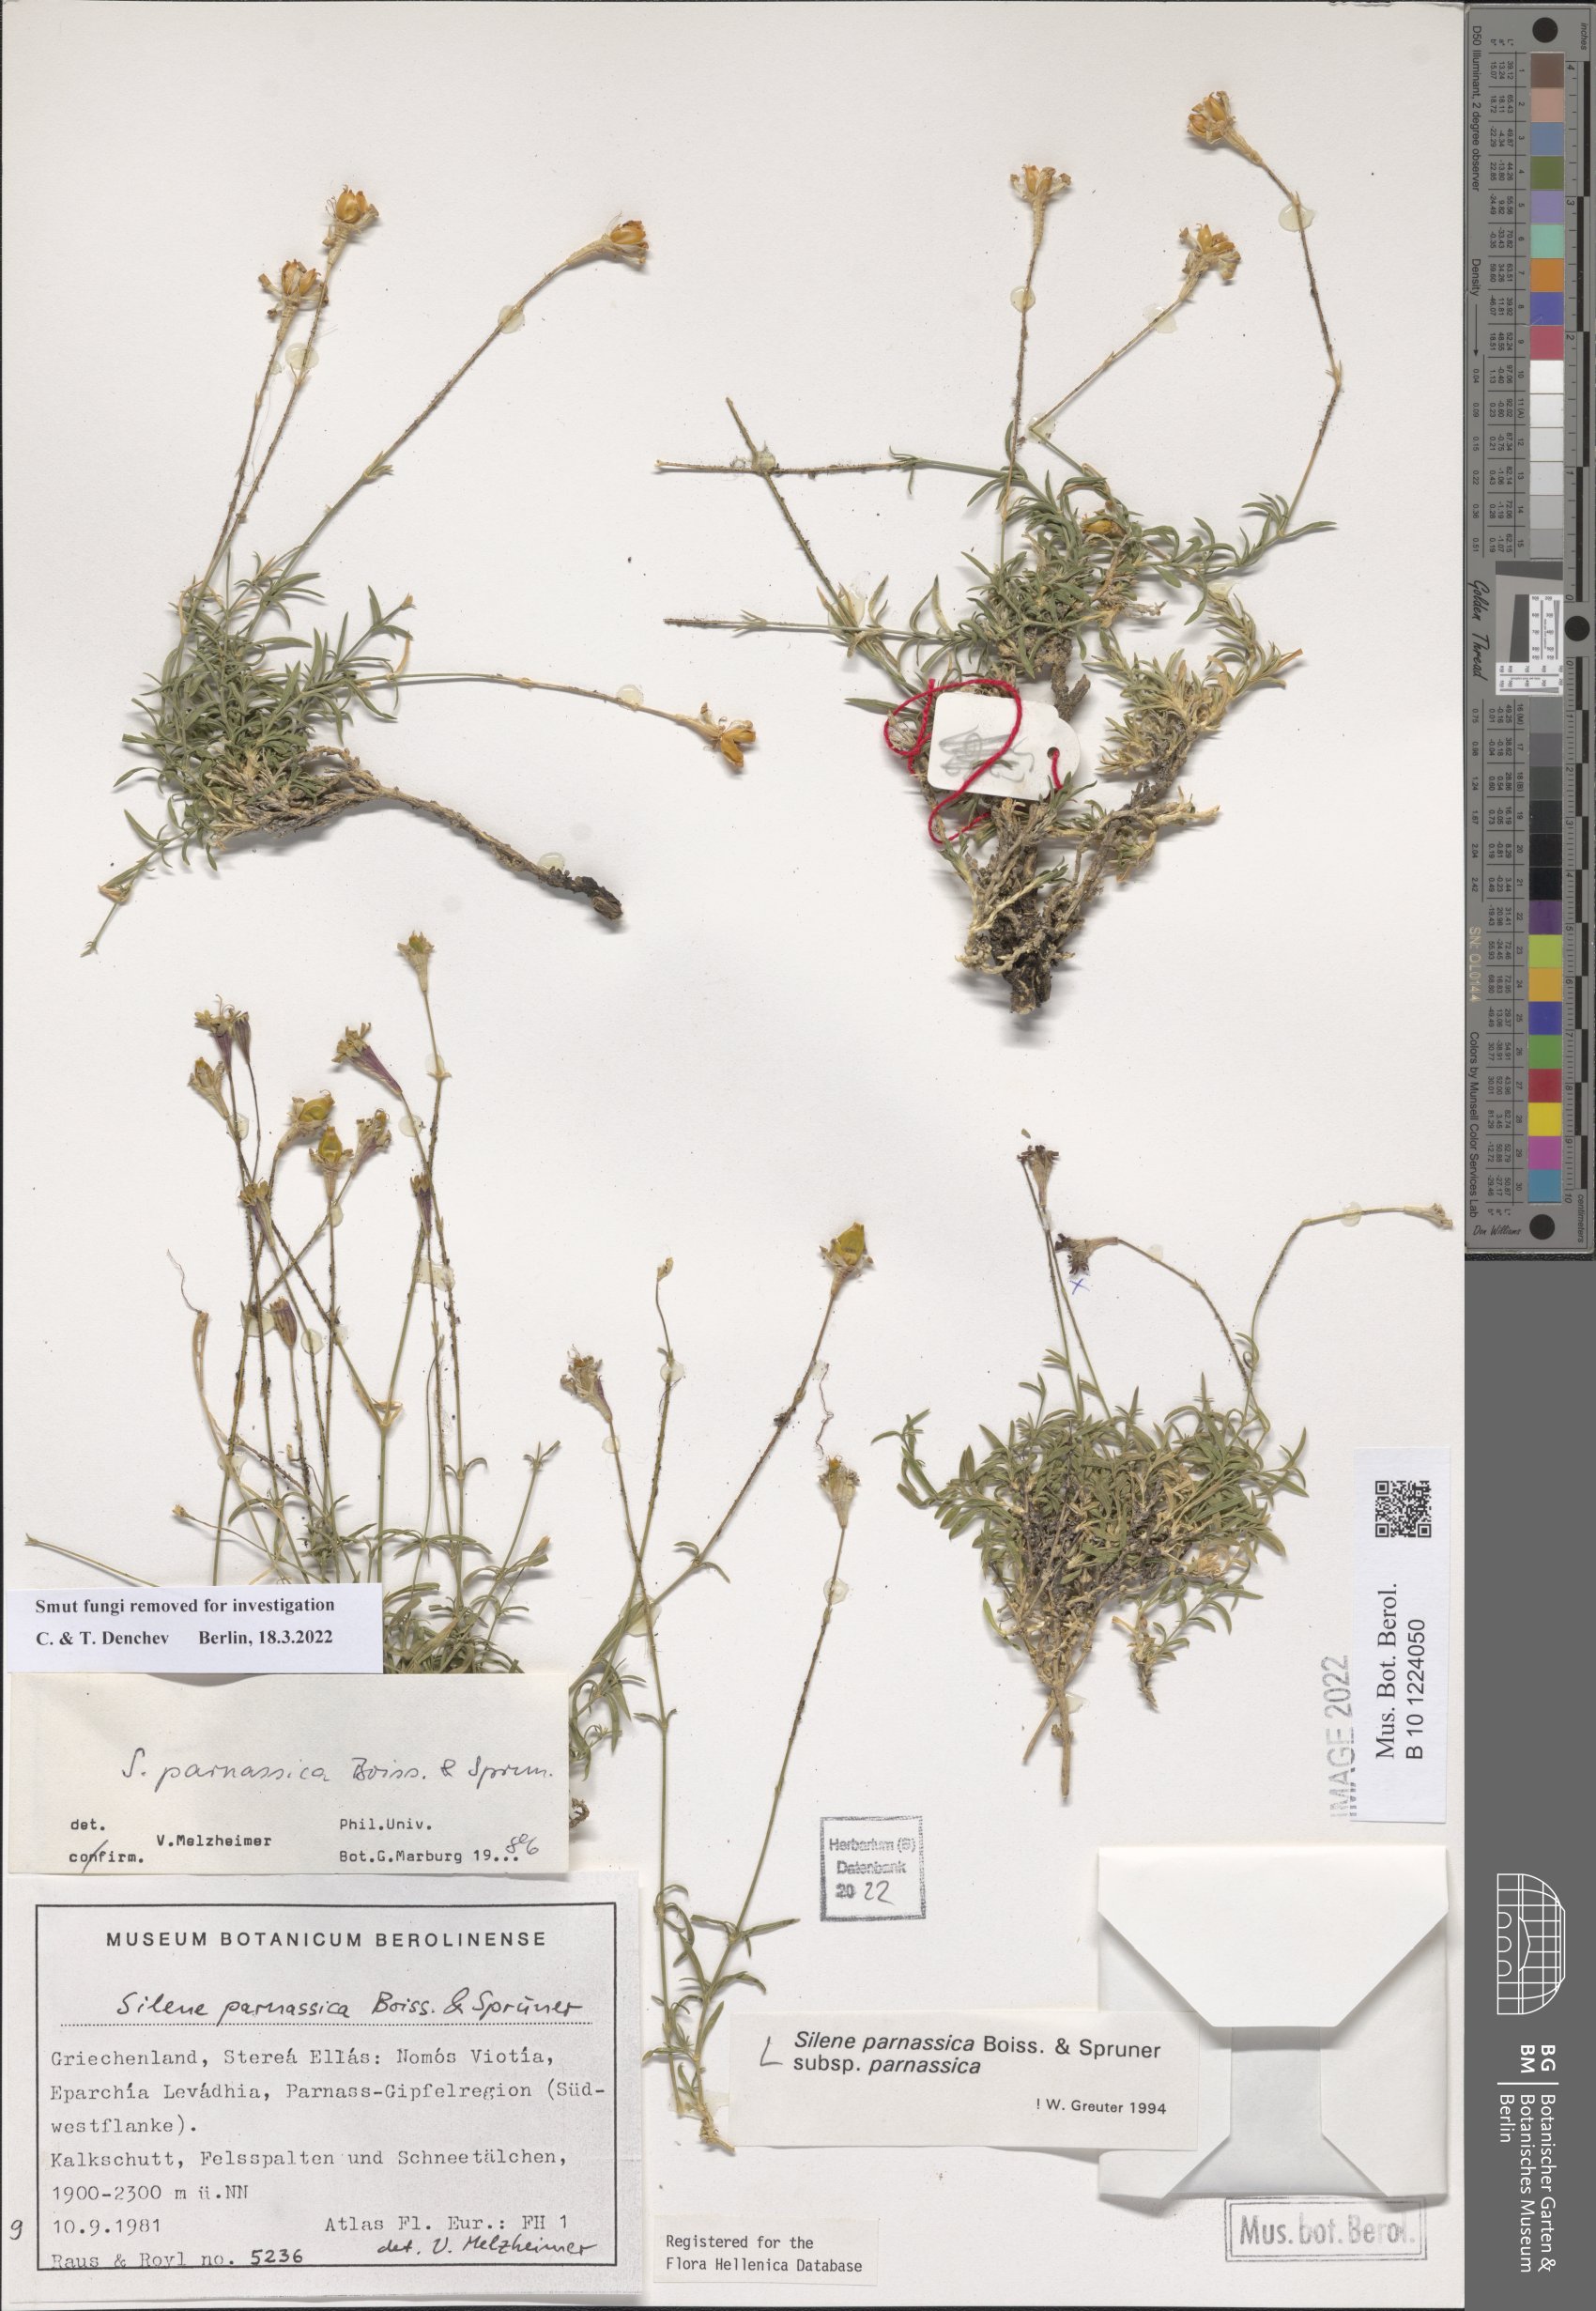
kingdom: Plantae
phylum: Tracheophyta
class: Magnoliopsida
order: Caryophyllales
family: Caryophyllaceae
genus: Silene
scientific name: Silene parnassica
